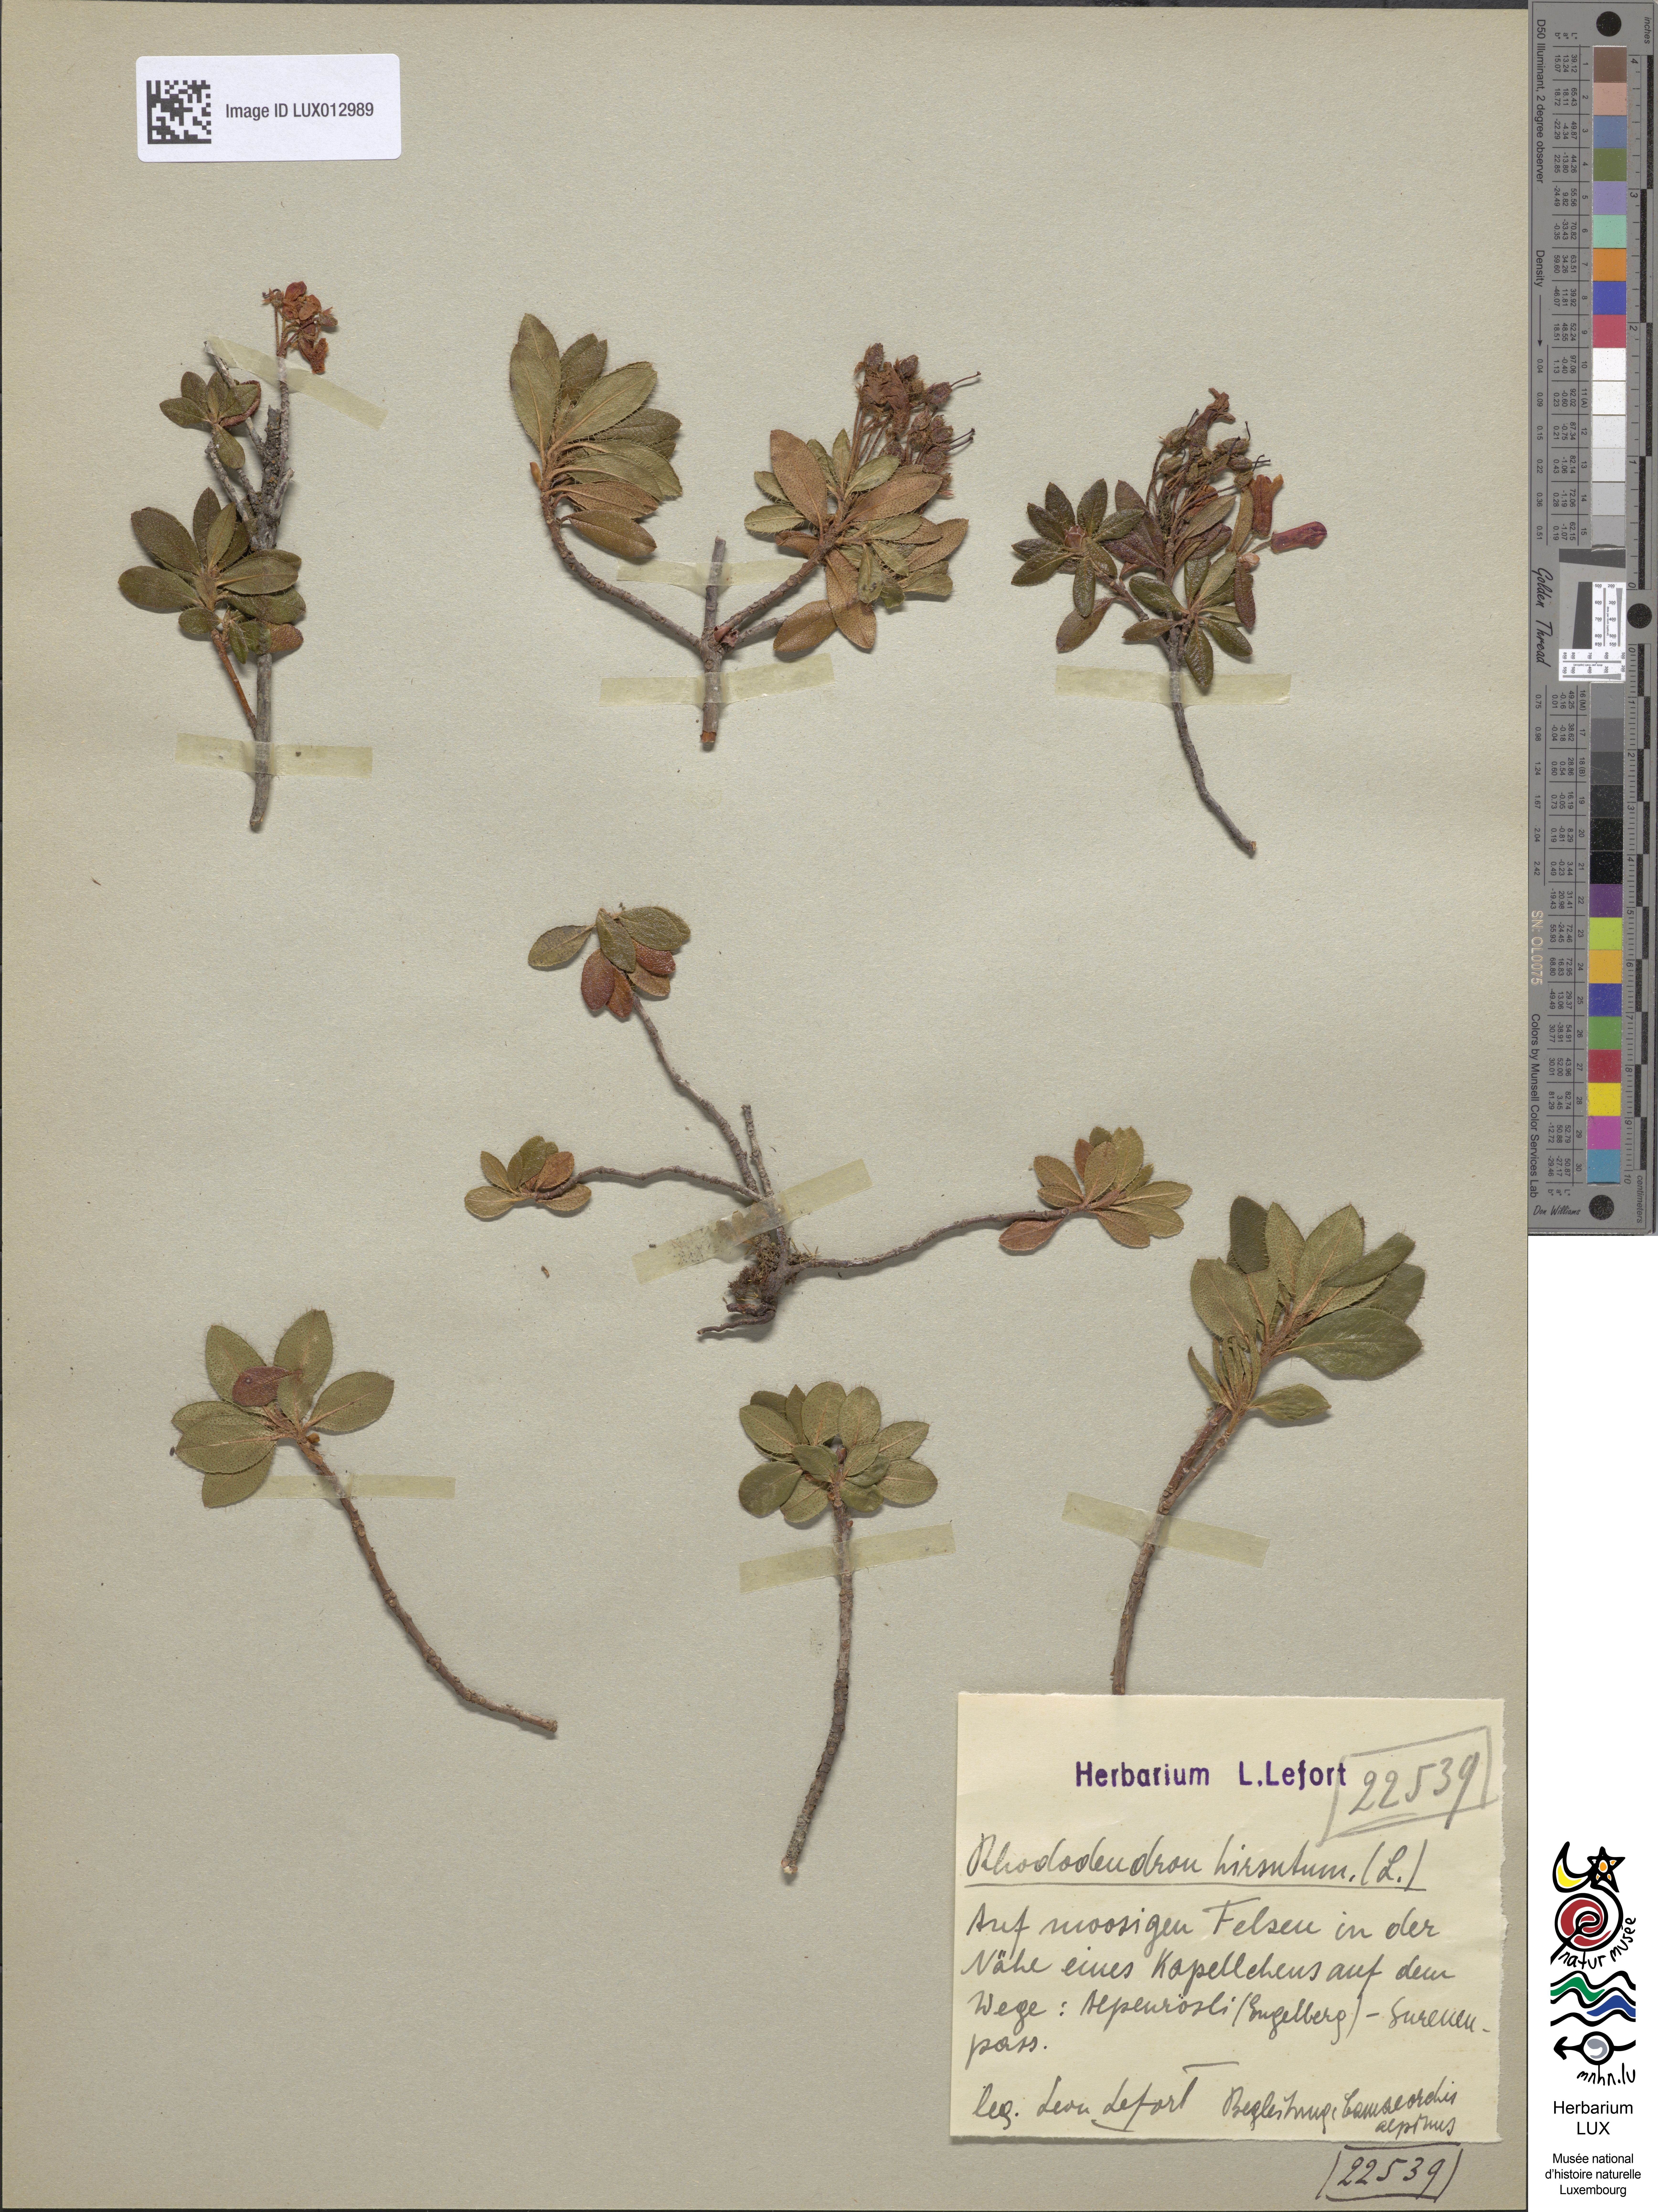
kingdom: Plantae
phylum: Tracheophyta
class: Magnoliopsida
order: Ericales
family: Ericaceae
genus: Rhododendron
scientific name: Rhododendron hirsutum
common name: Hairy alpenrose
